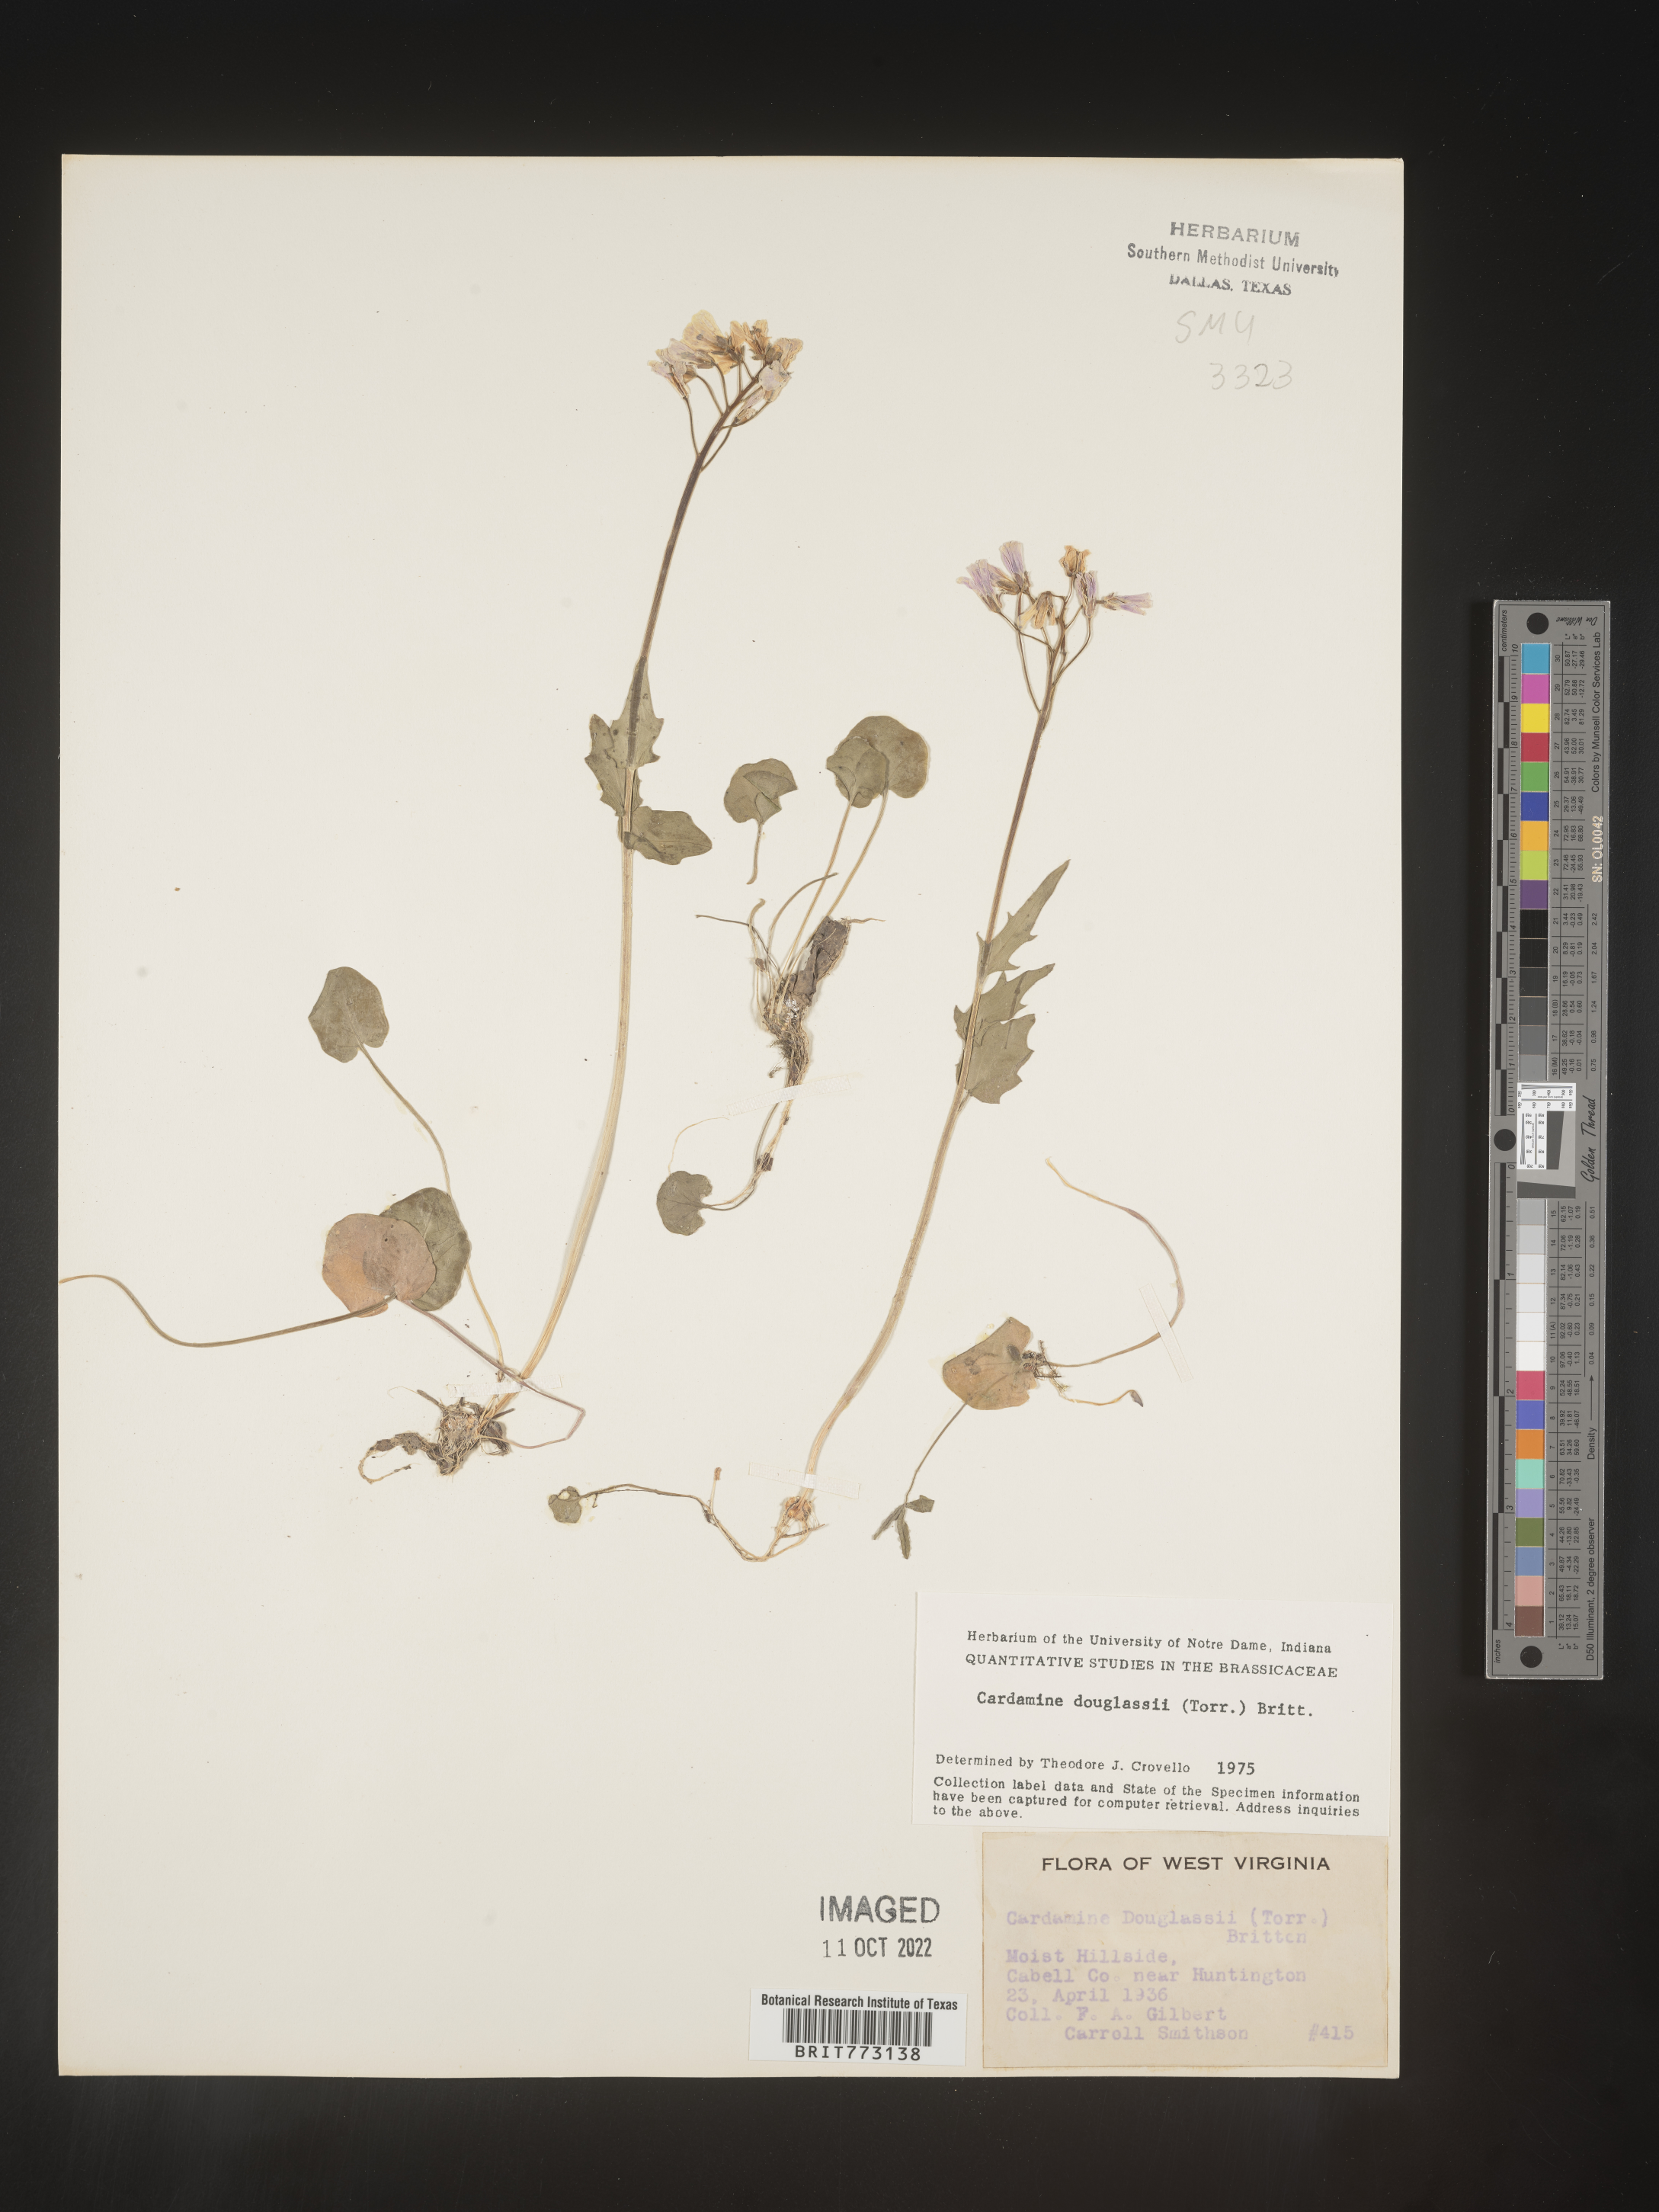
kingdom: Plantae
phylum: Tracheophyta
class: Magnoliopsida
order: Brassicales
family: Brassicaceae
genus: Cardamine
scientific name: Cardamine
